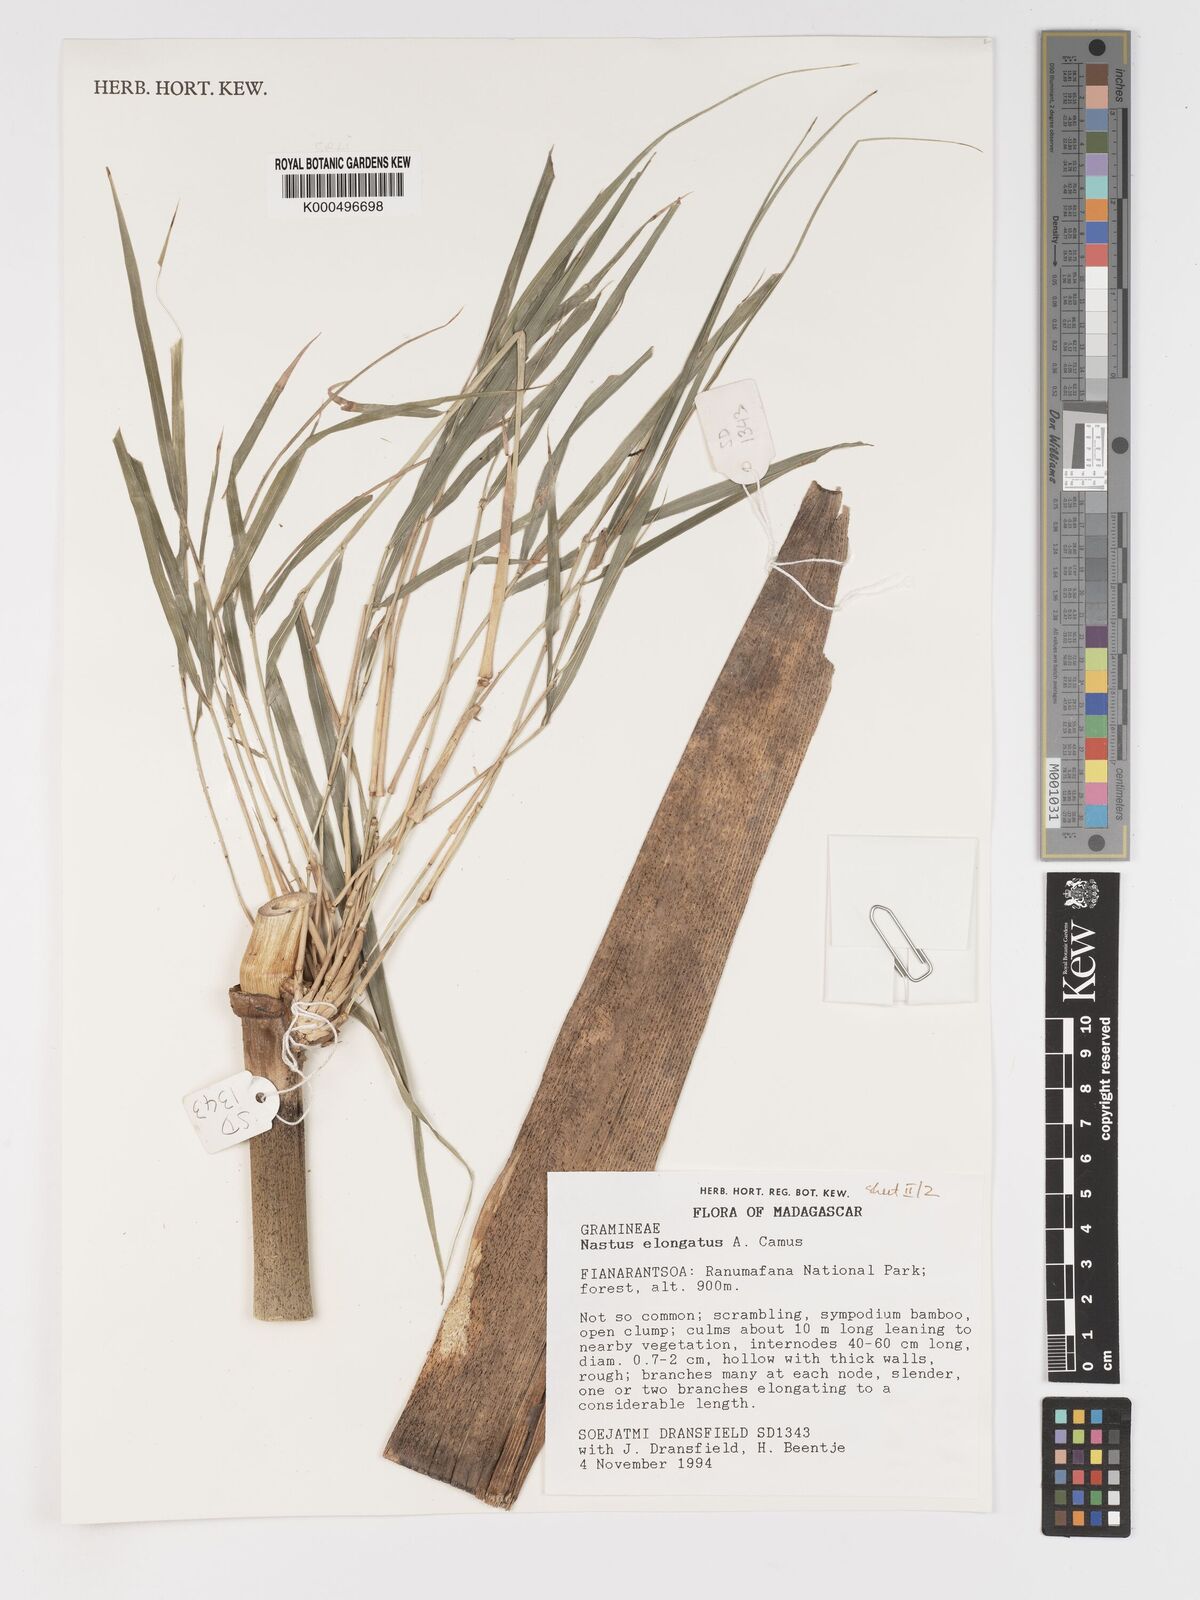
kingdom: Plantae
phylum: Tracheophyta
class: Liliopsida
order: Poales
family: Poaceae
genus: Nastus
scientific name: Nastus elongatus
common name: Spider bamboo
